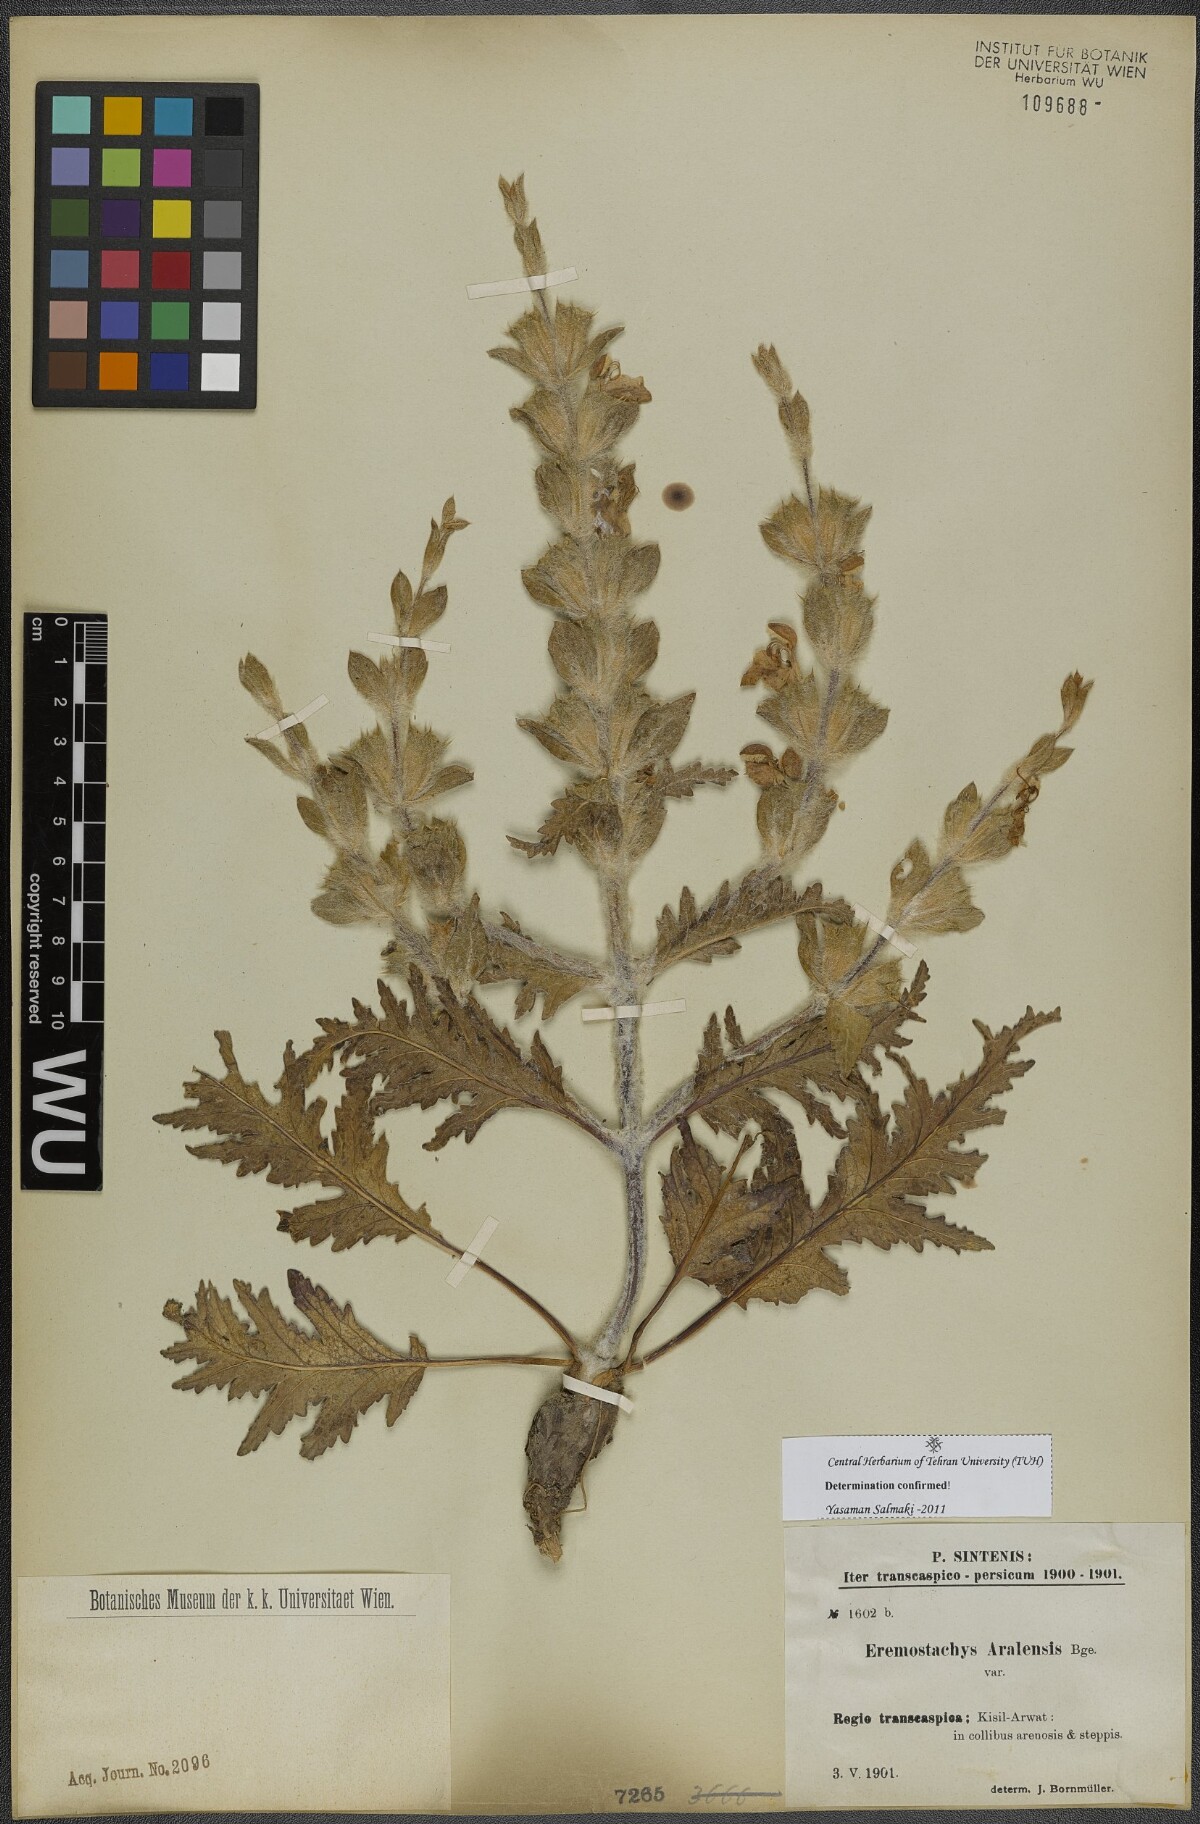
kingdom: Plantae
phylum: Tracheophyta
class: Magnoliopsida
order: Lamiales
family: Lamiaceae
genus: Phlomoides
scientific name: Phlomoides aralensis
